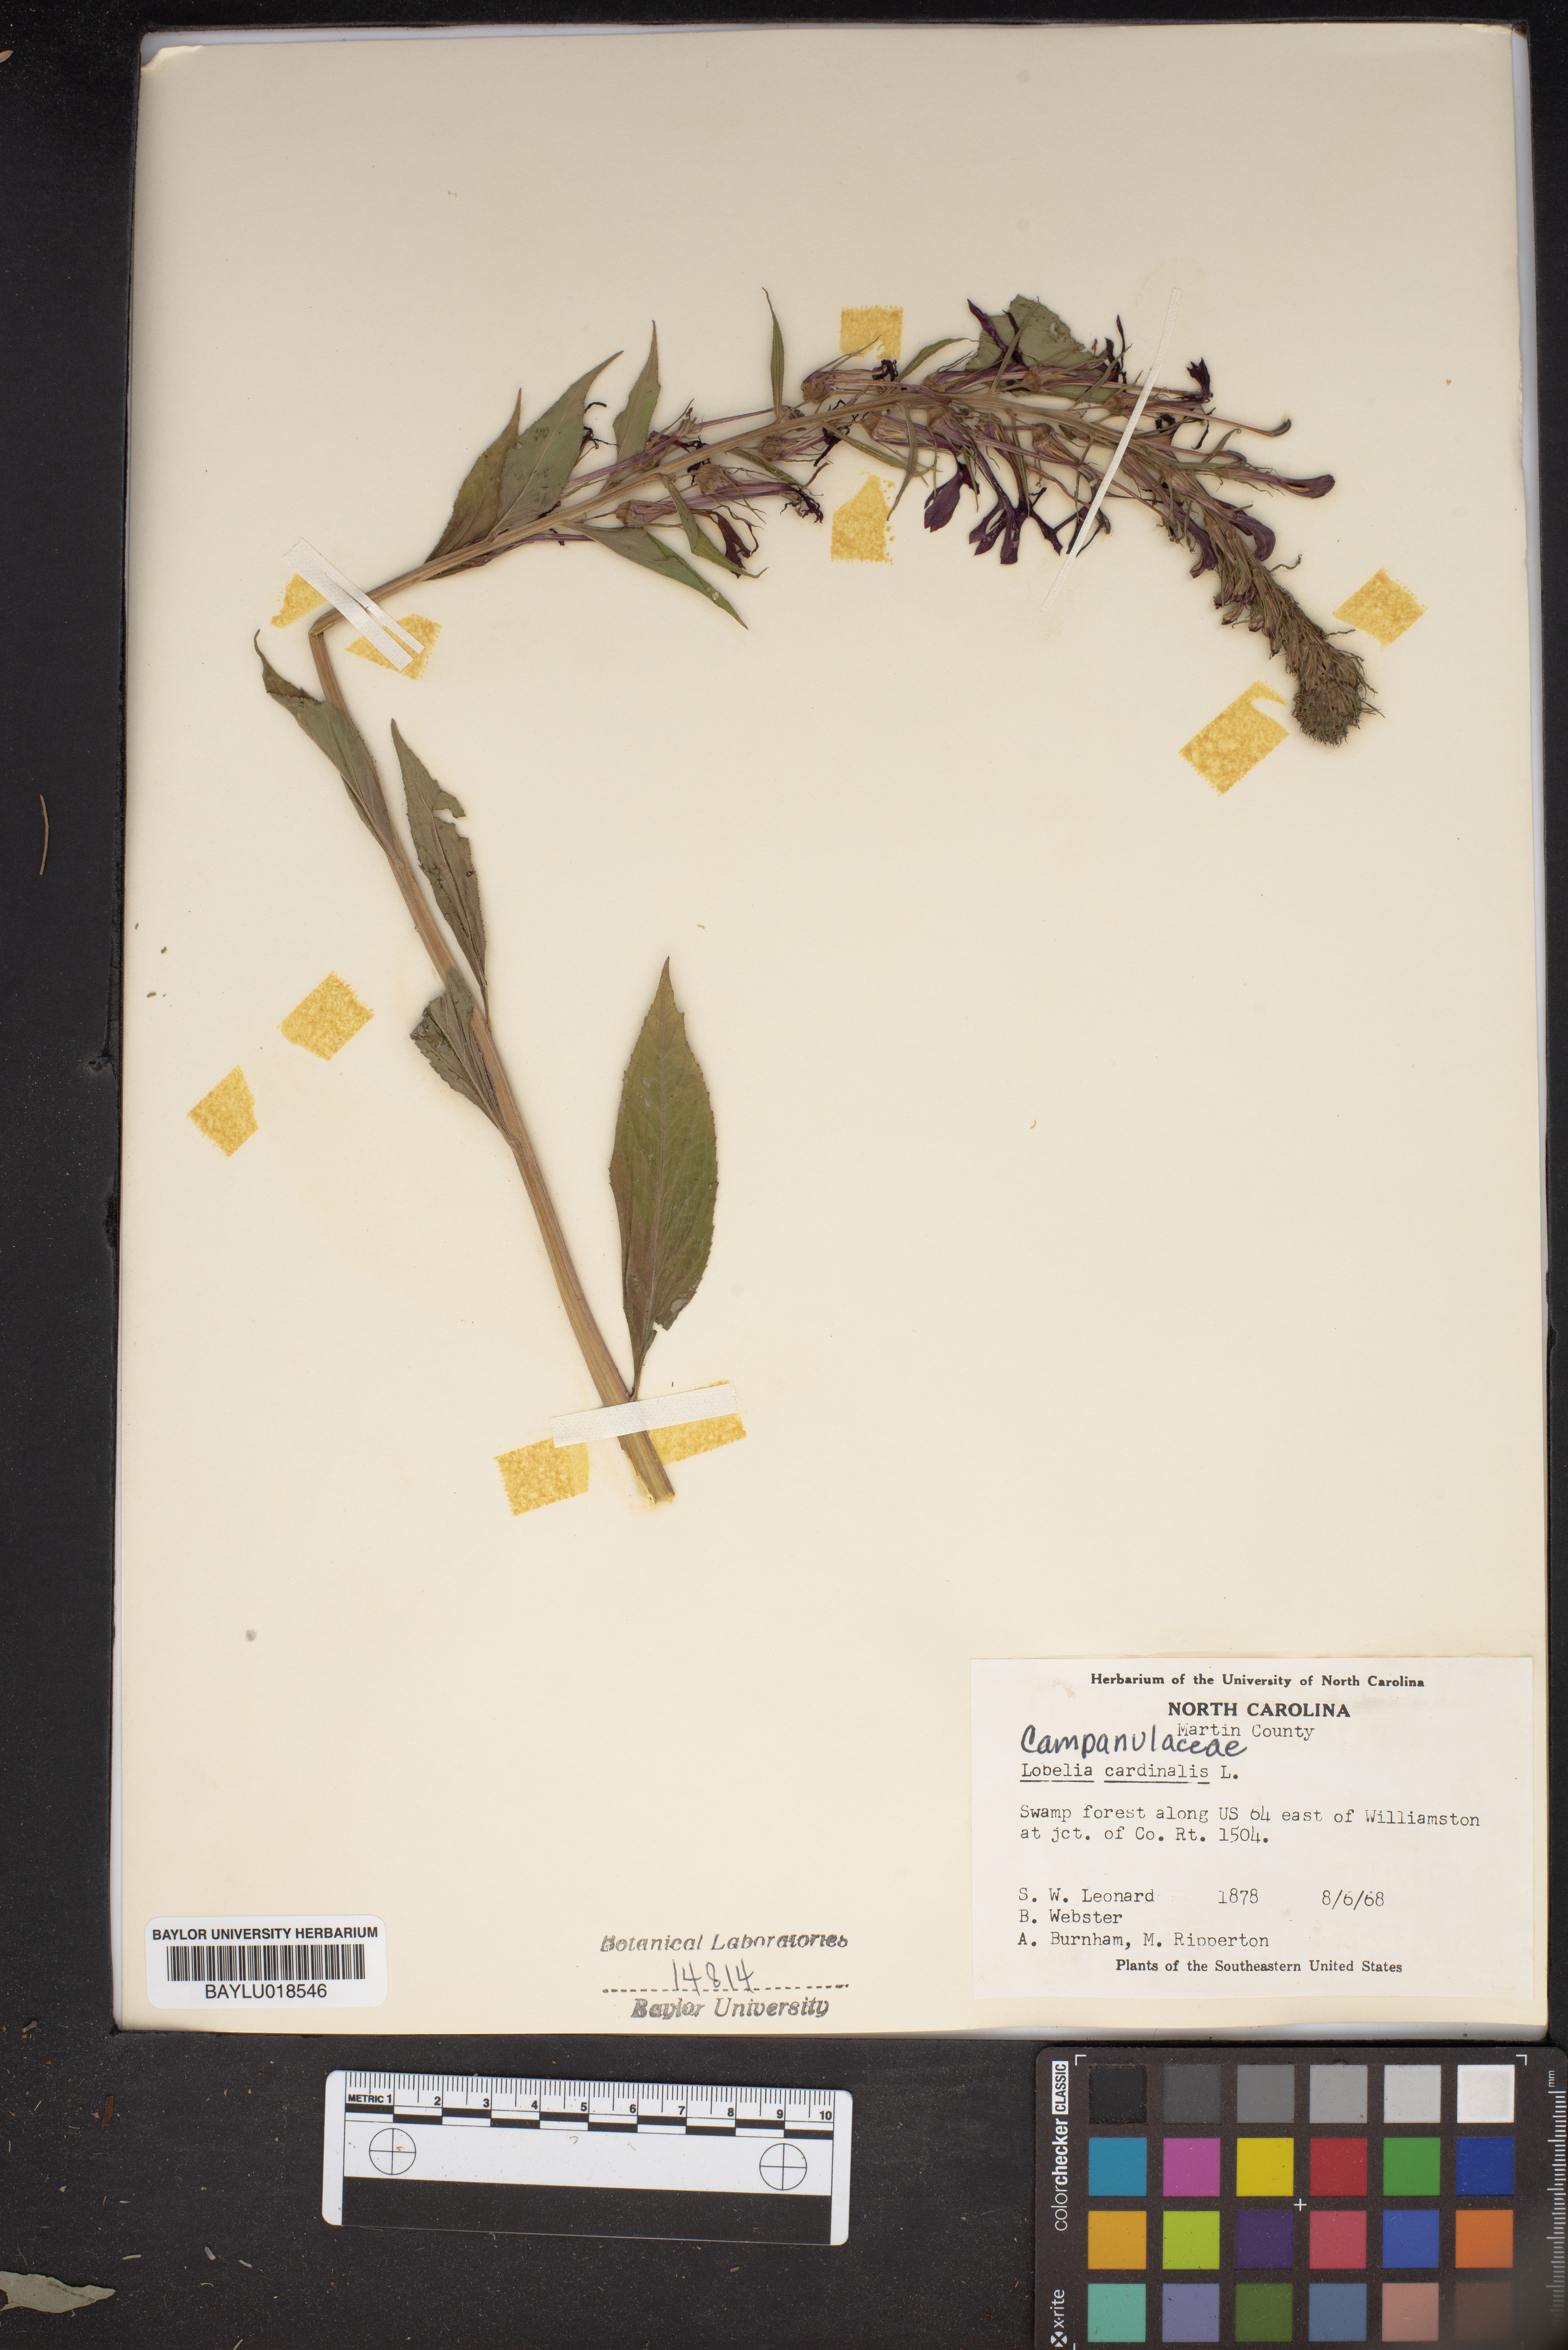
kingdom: Plantae
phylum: Tracheophyta
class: Magnoliopsida
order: Asterales
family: Campanulaceae
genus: Lobelia
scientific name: Lobelia cardinalis
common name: Cardinal flower
